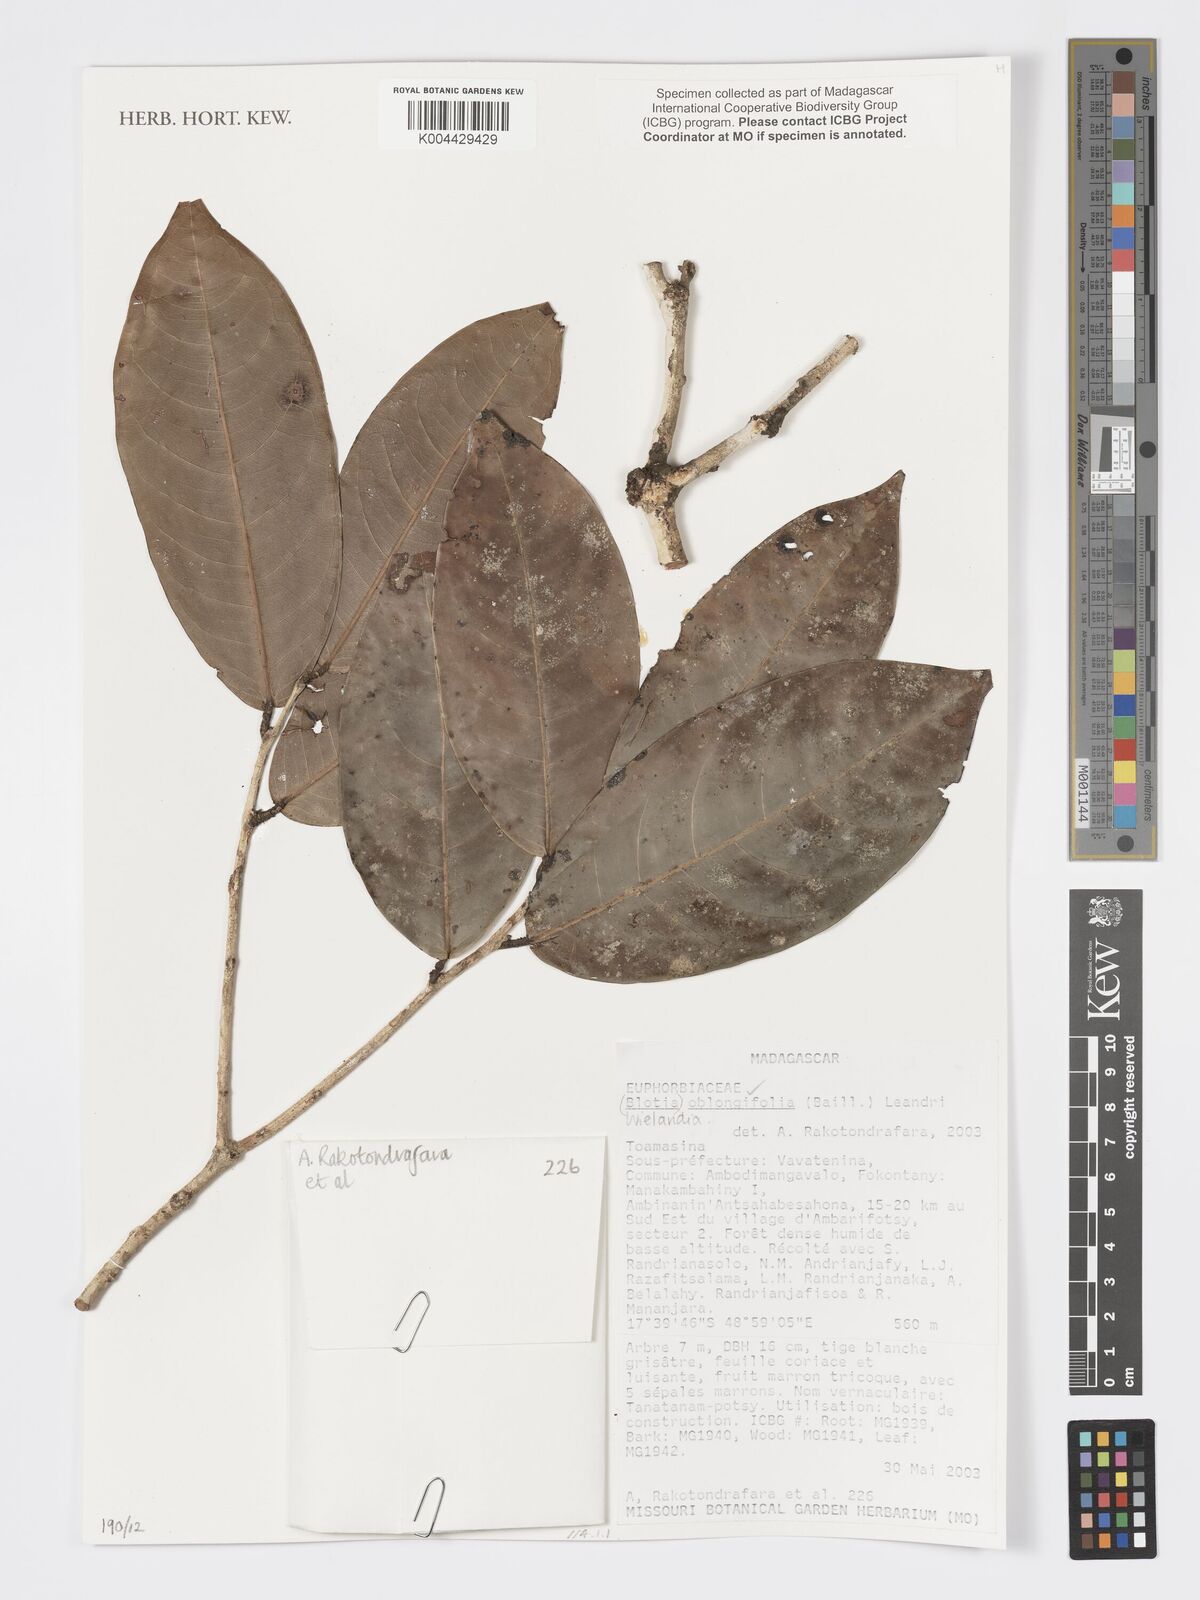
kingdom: Plantae
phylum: Tracheophyta
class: Magnoliopsida
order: Malpighiales
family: Phyllanthaceae
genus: Wielandia
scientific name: Wielandia oblongifolia
